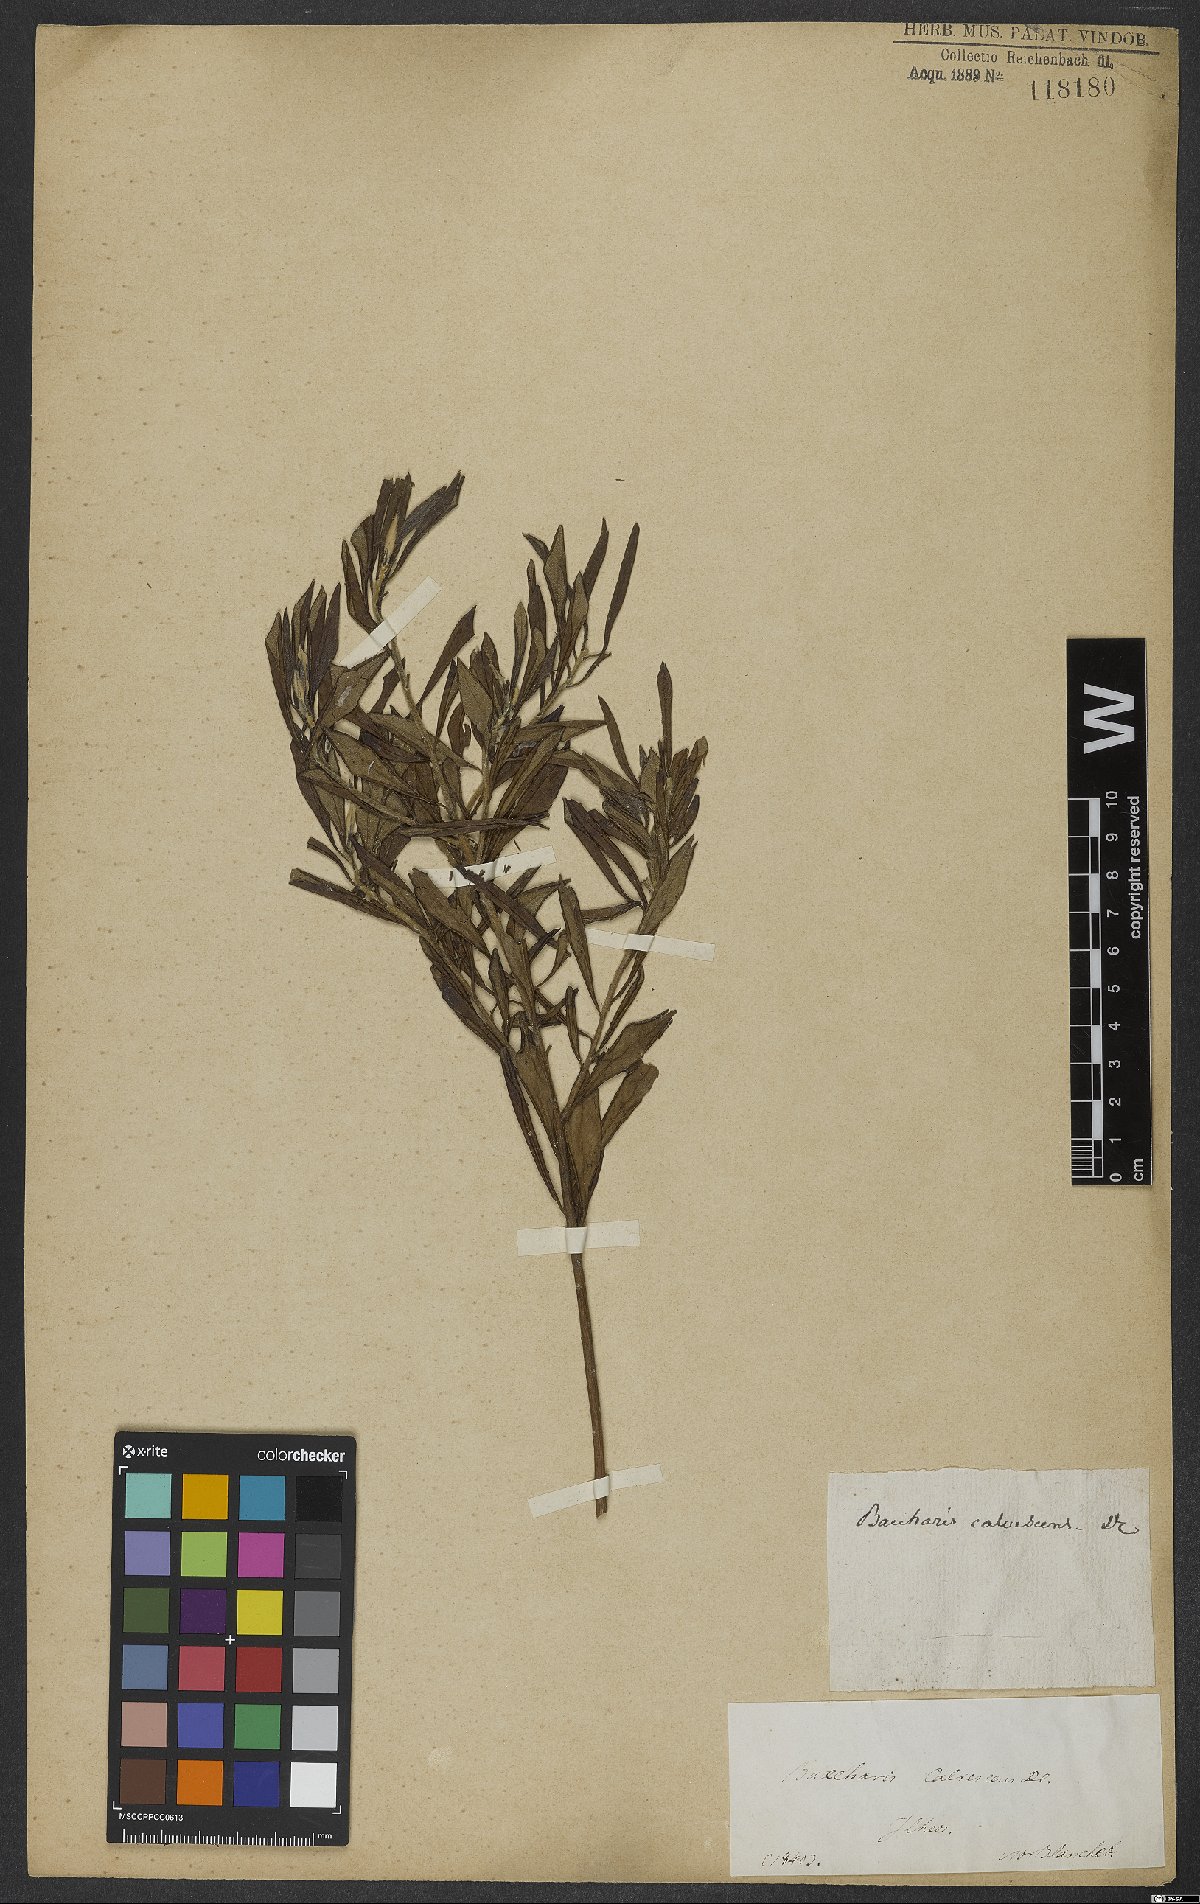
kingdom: Plantae
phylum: Tracheophyta
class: Magnoliopsida
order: Asterales
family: Asteraceae
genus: Baccharis
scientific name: Baccharis calvescens
